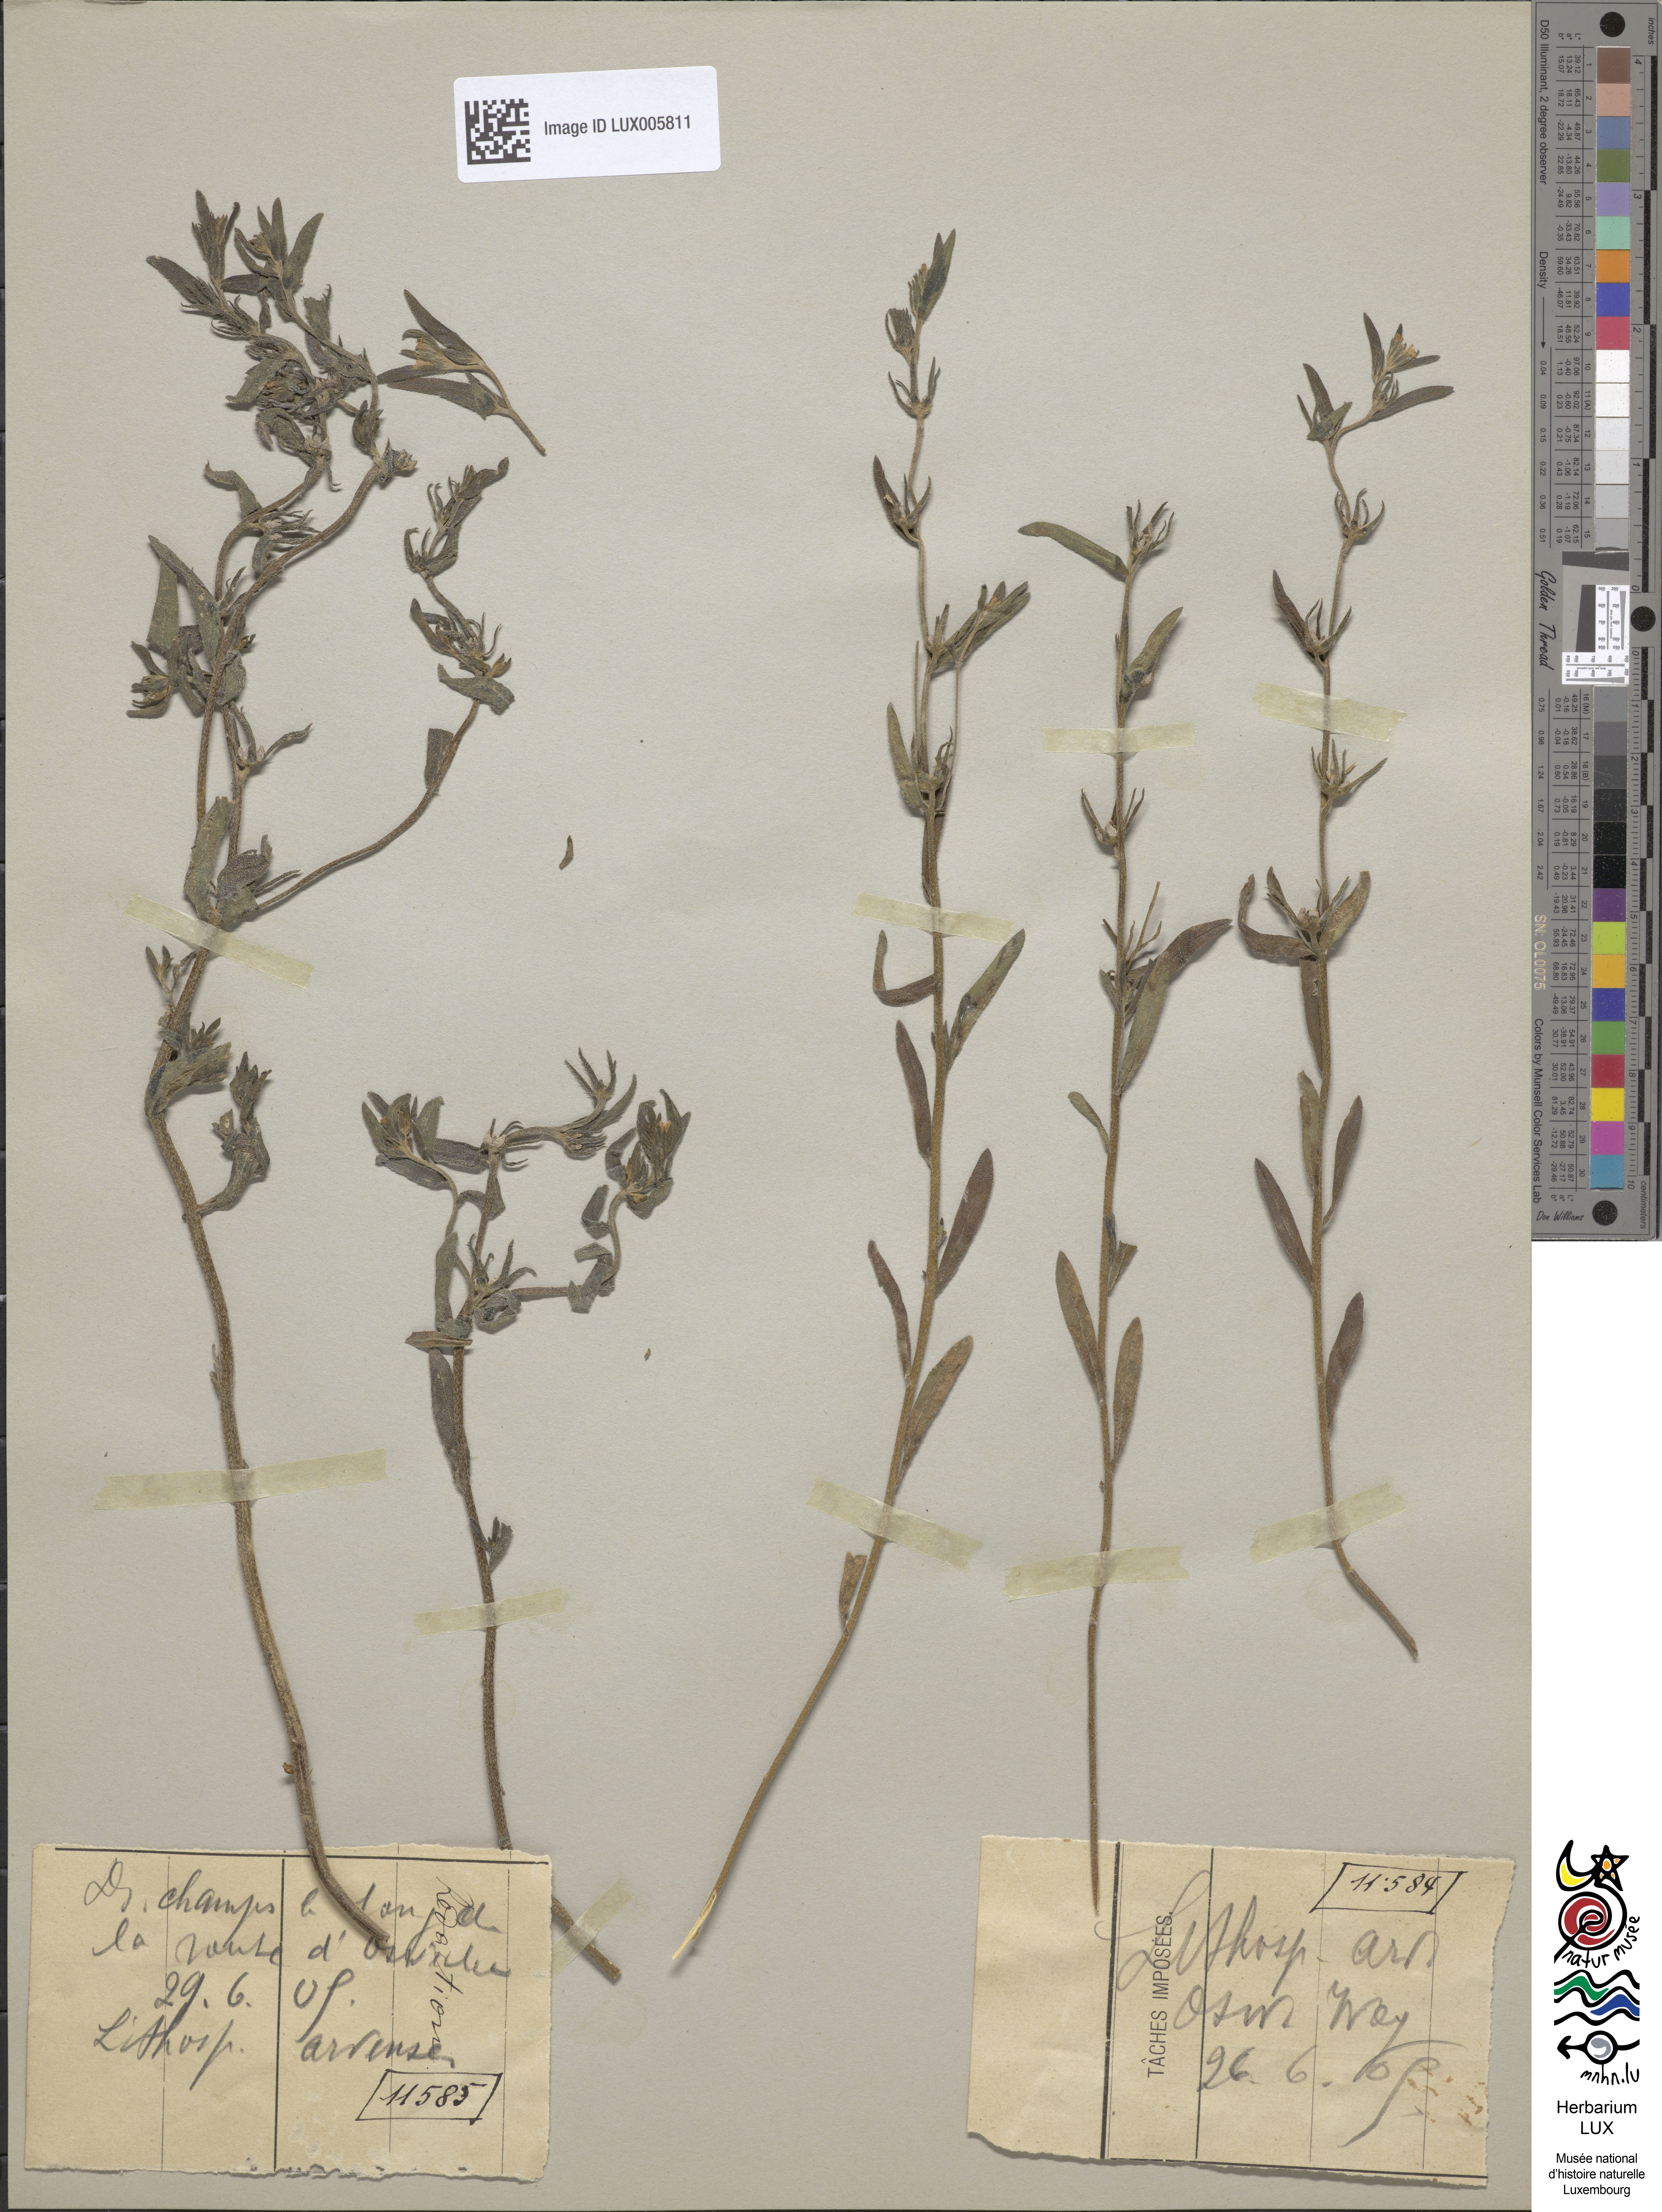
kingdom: Plantae
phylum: Tracheophyta
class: Magnoliopsida
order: Boraginales
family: Boraginaceae
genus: Buglossoides
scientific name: Buglossoides arvensis
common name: Corn gromwell
